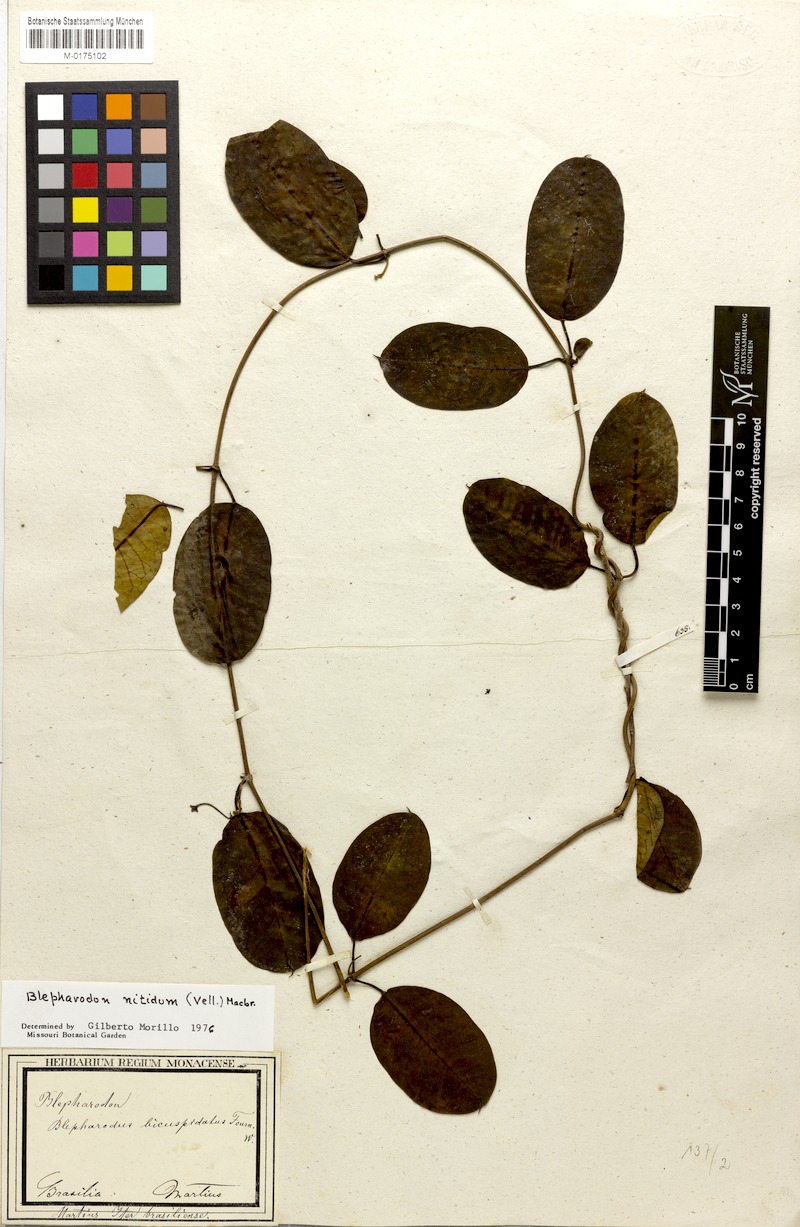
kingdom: Plantae
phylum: Tracheophyta
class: Magnoliopsida
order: Gentianales
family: Apocynaceae
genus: Blepharodon
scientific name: Blepharodon pictum
